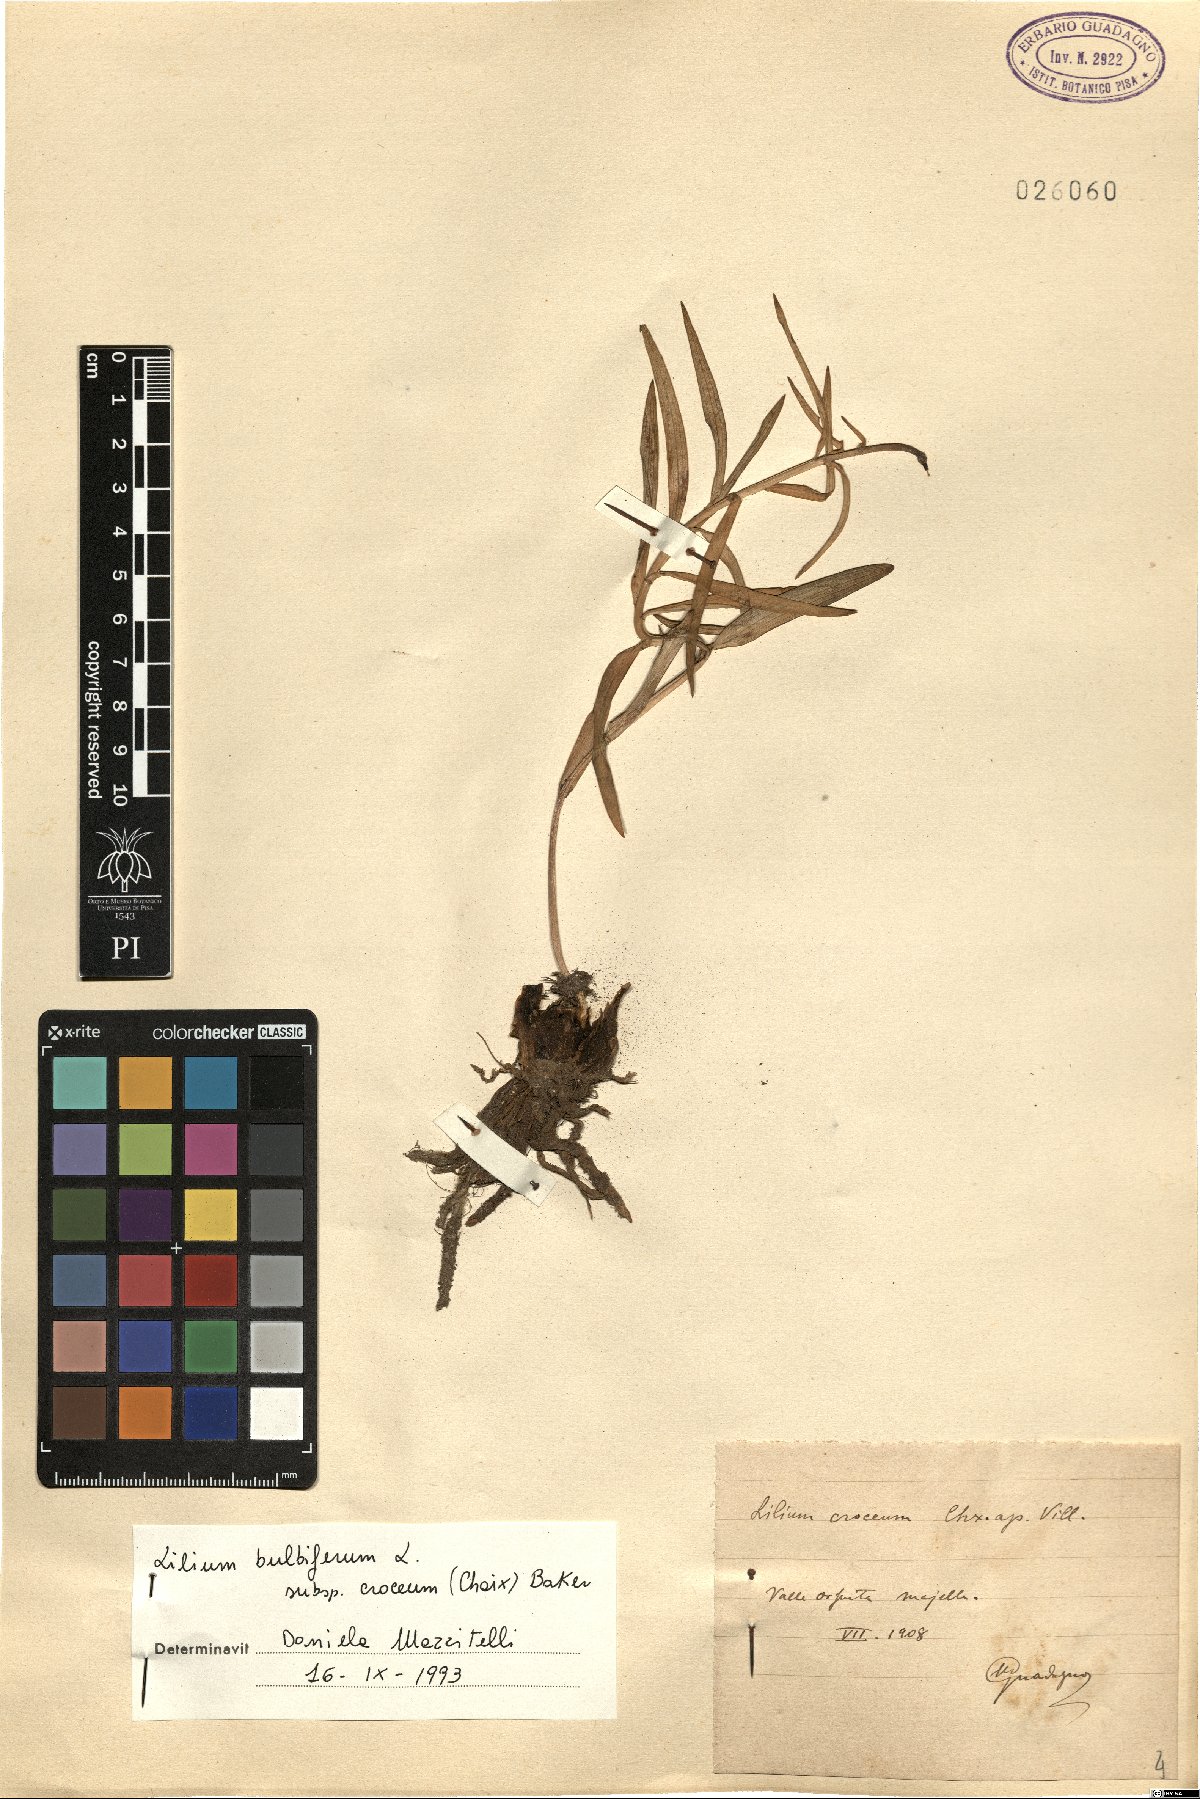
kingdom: Plantae
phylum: Tracheophyta
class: Liliopsida
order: Liliales
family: Liliaceae
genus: Lilium
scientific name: Lilium bulbiferum
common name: Orange lily
